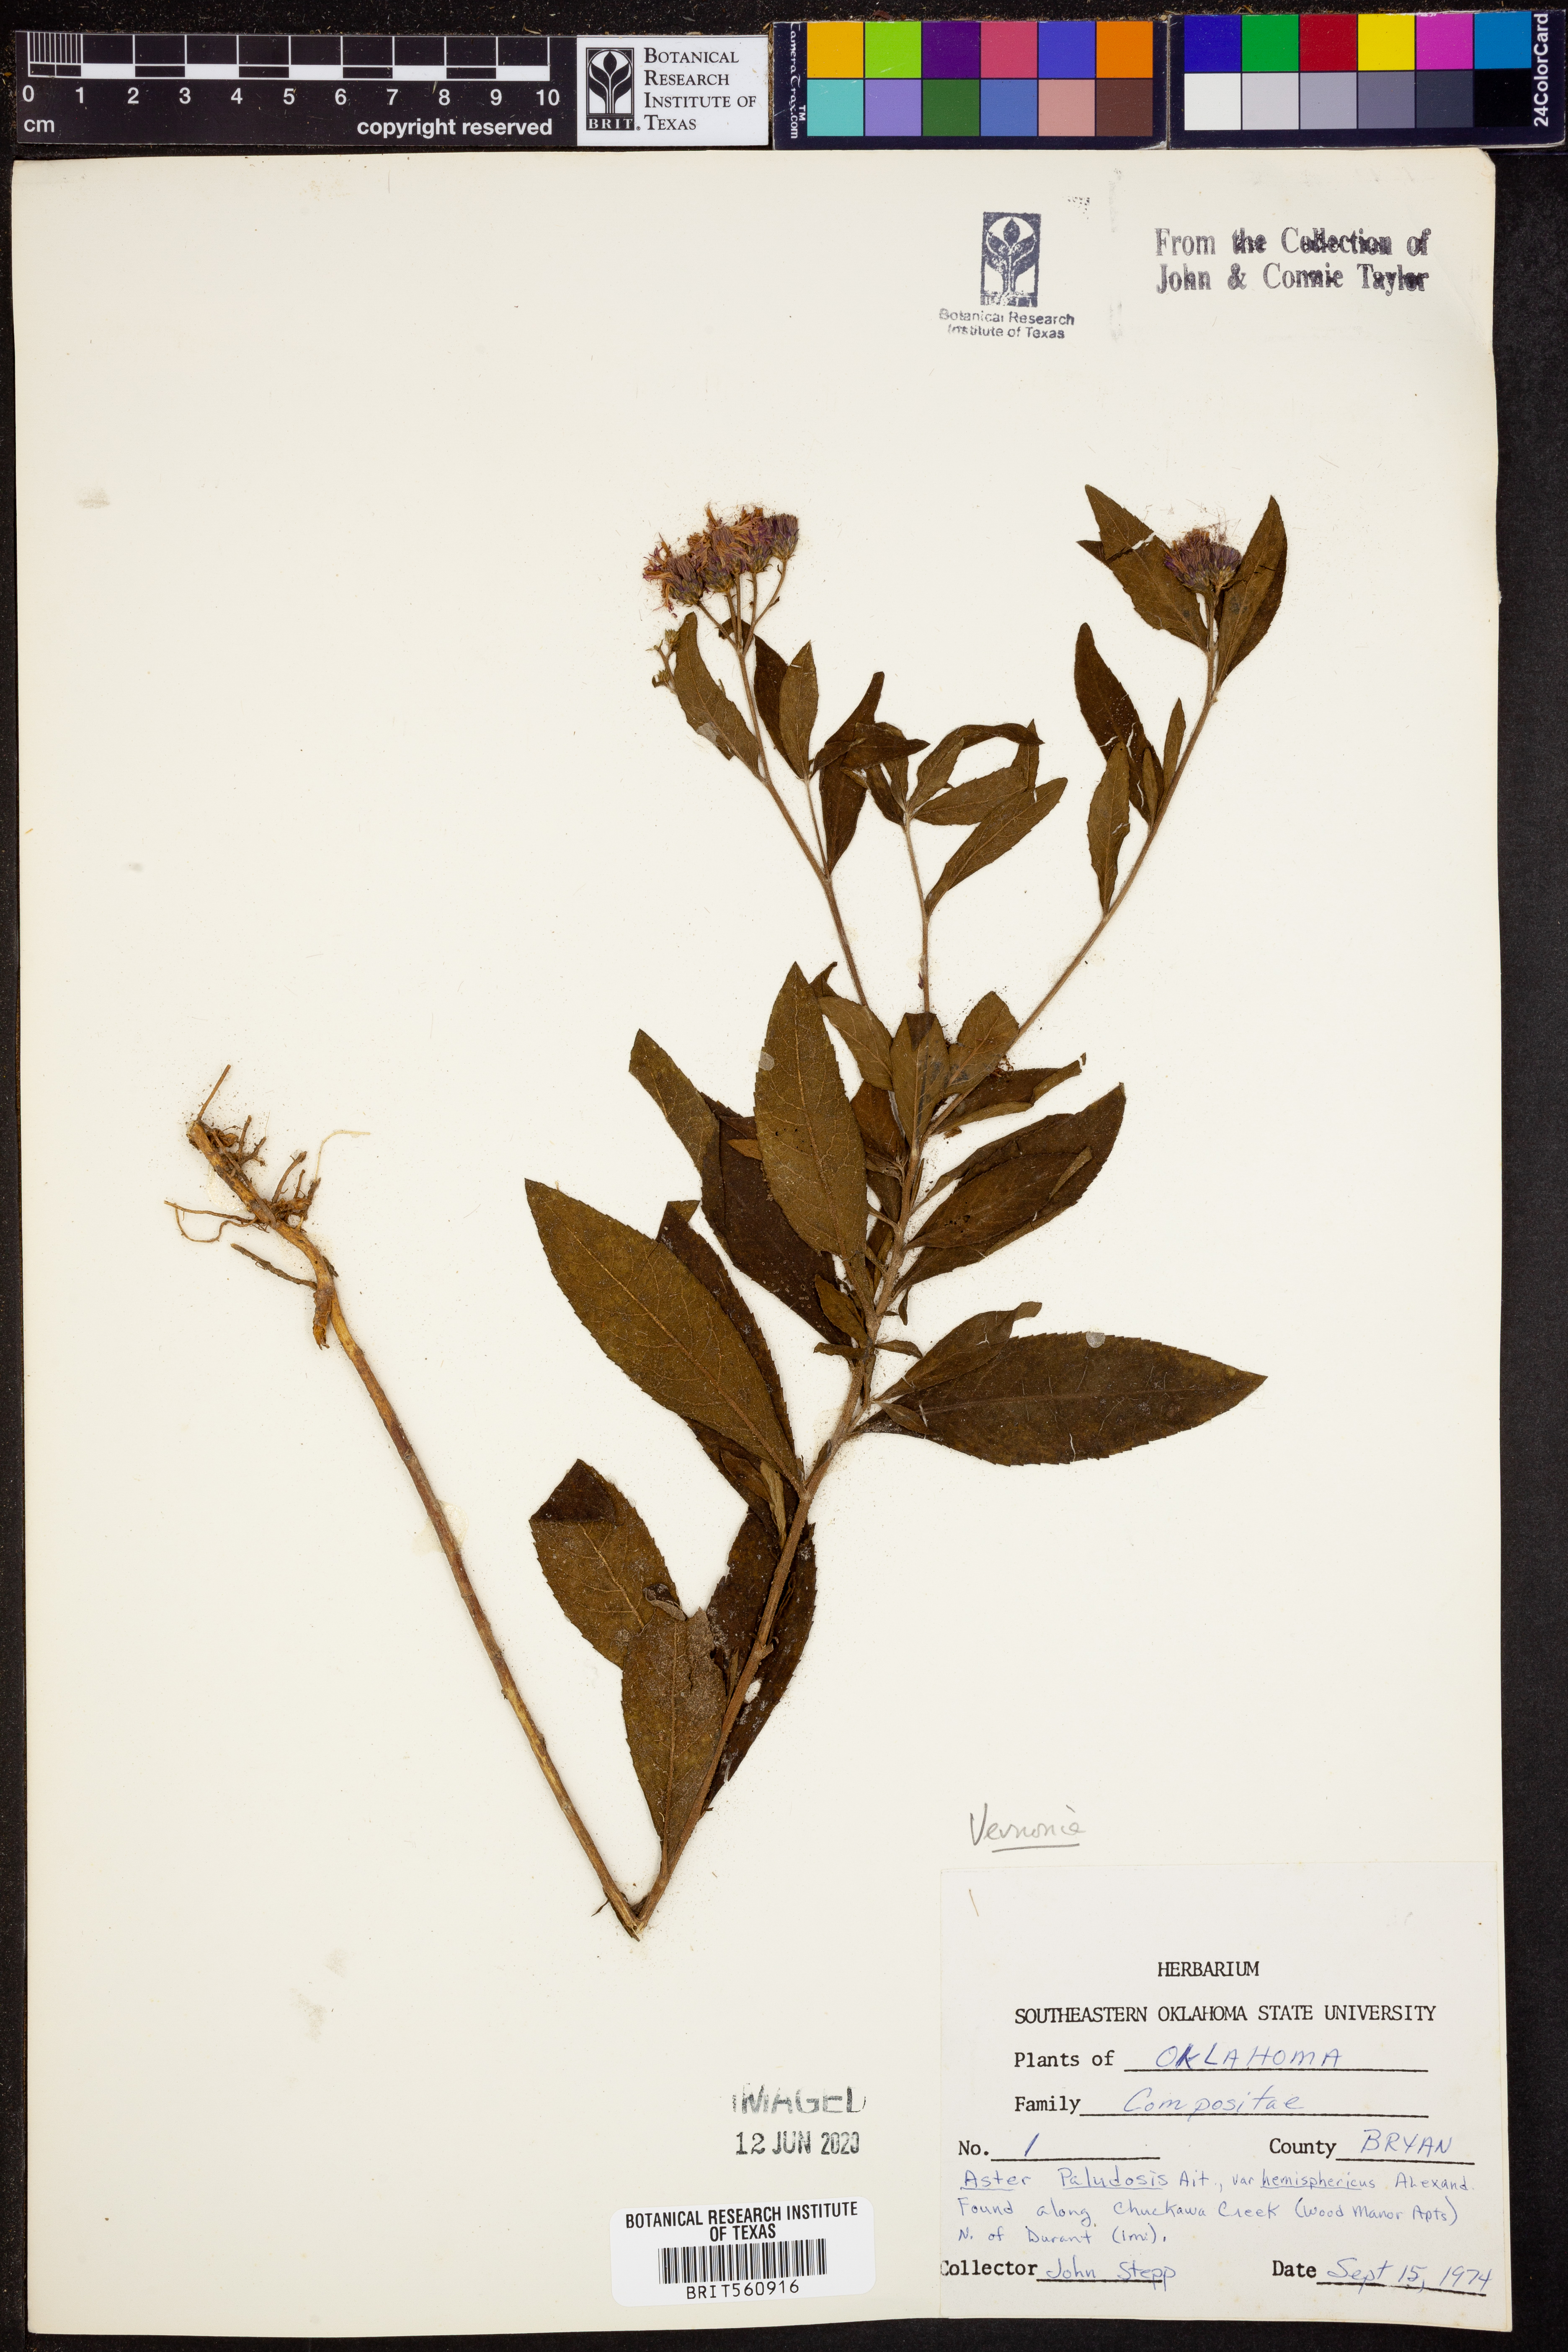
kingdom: Plantae
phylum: Tracheophyta
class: Magnoliopsida
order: Asterales
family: Asteraceae
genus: Vernonia
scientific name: Vernonia
